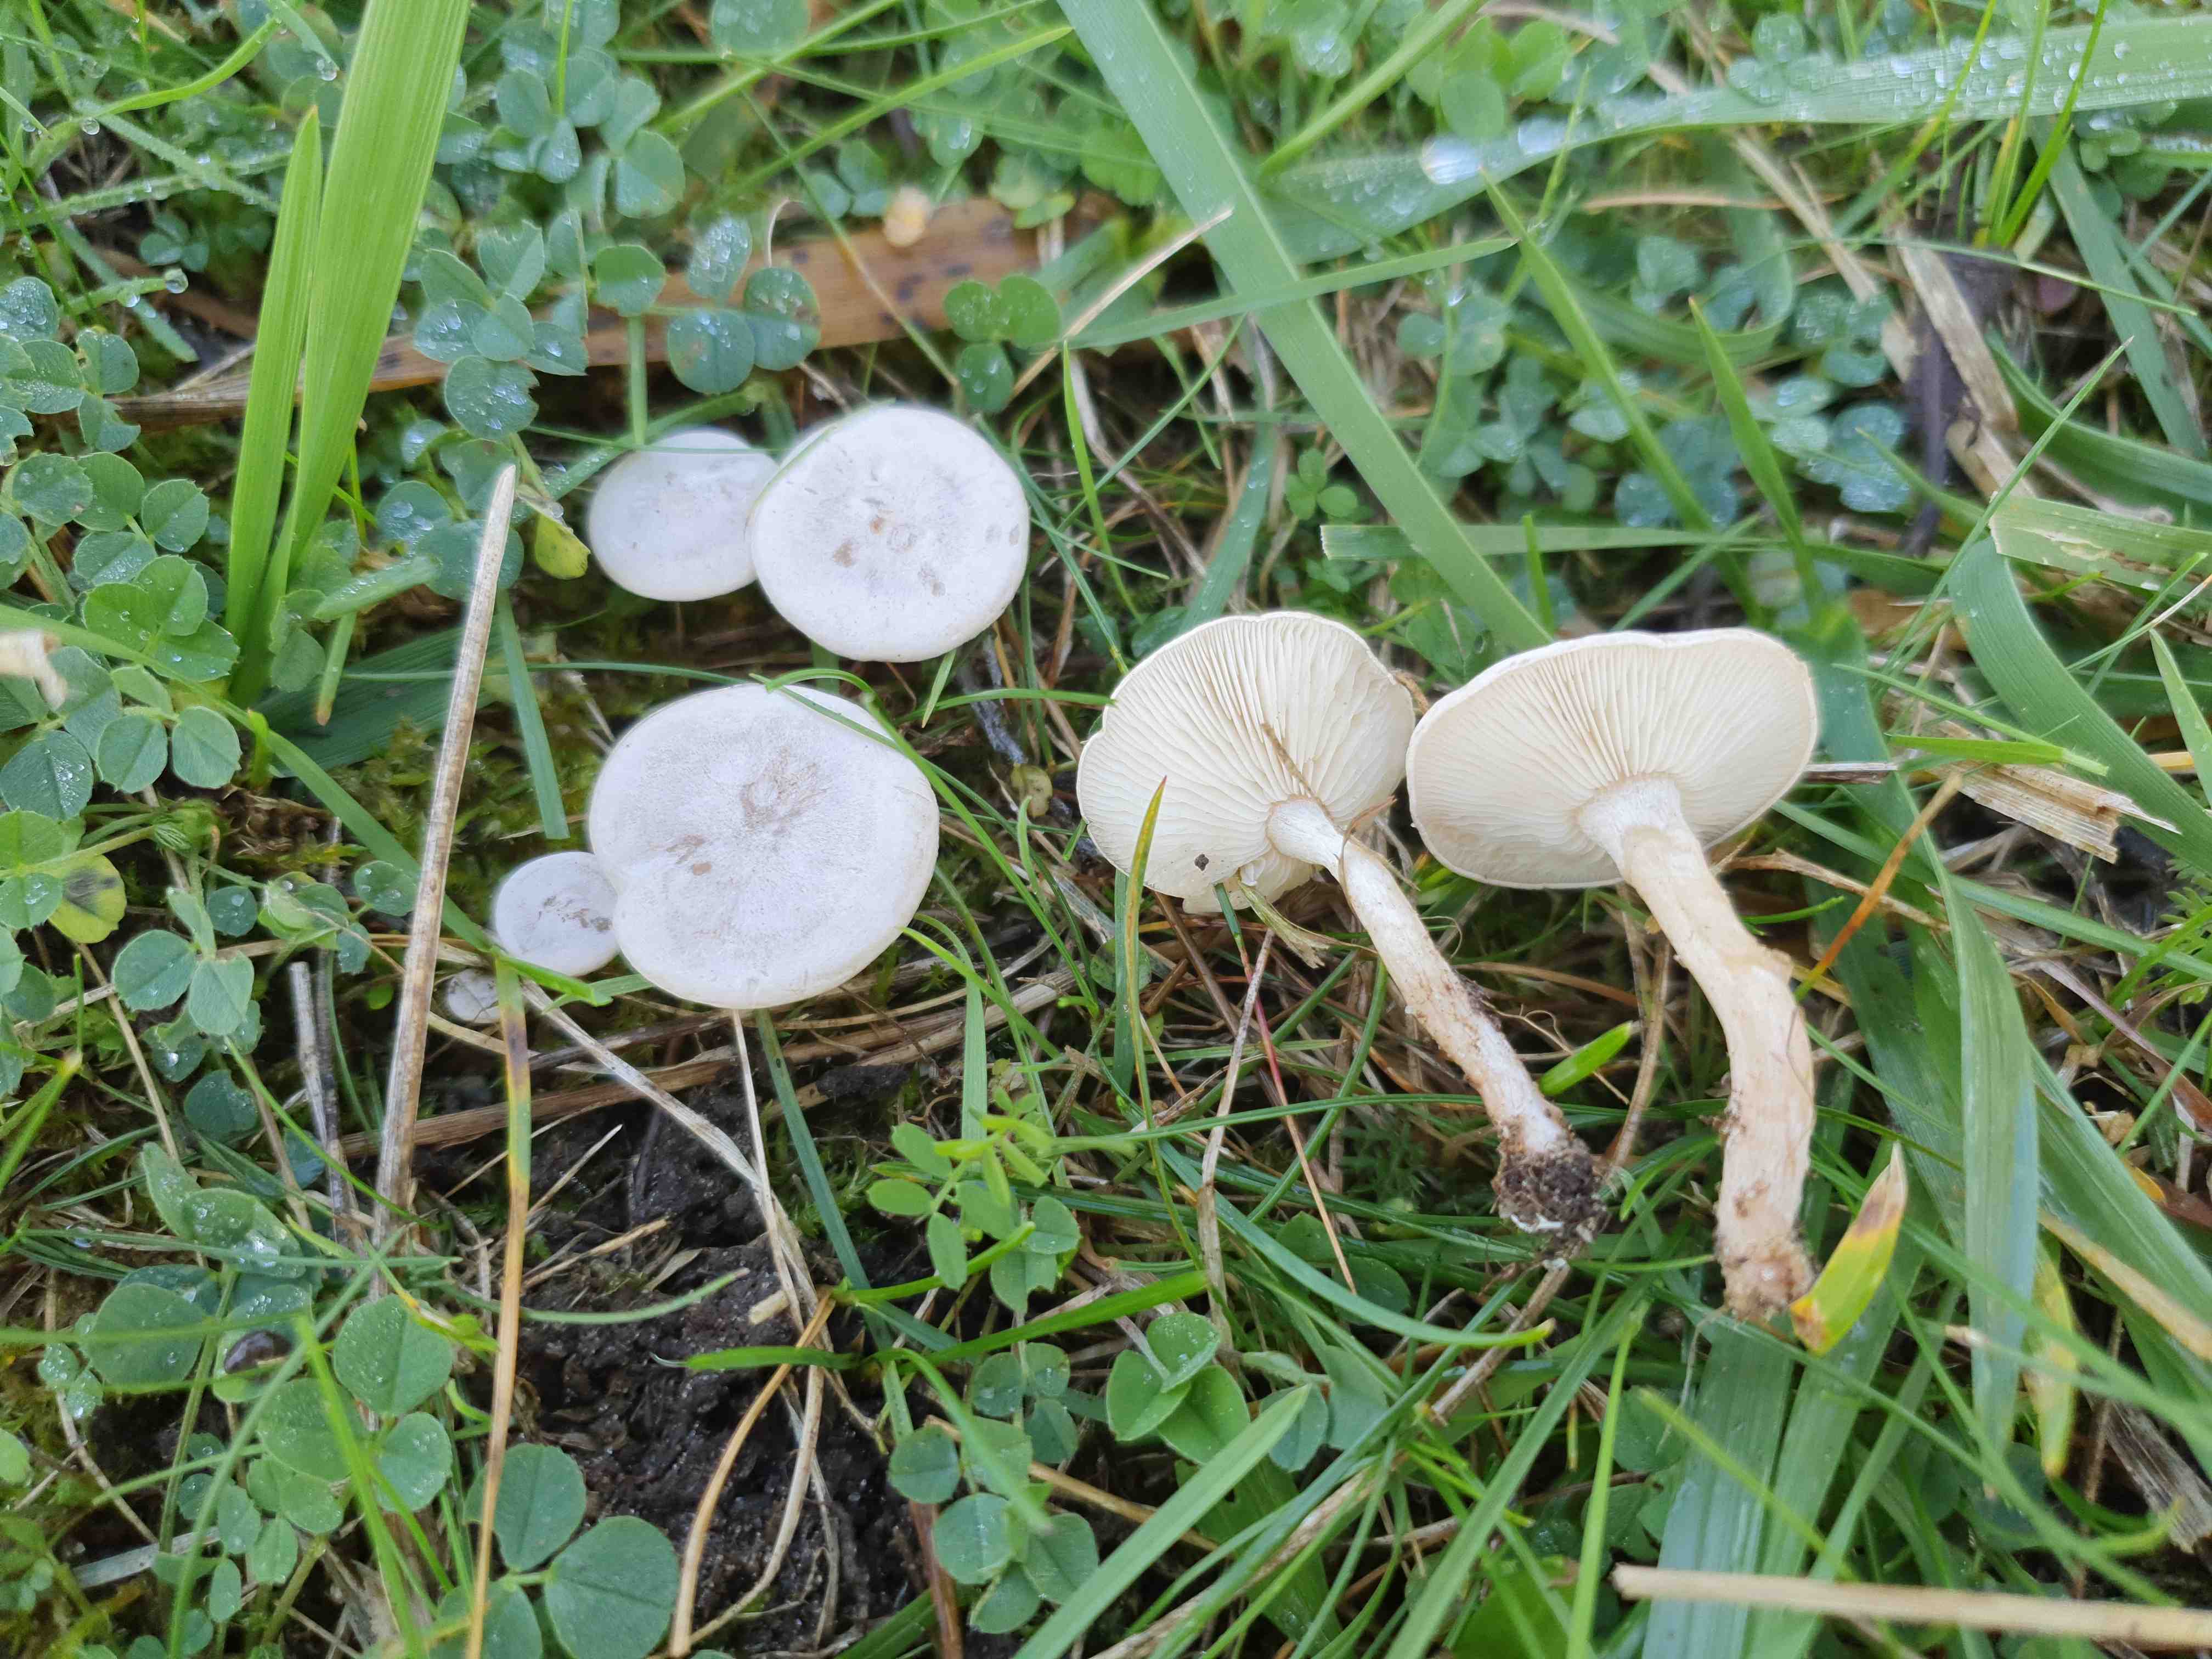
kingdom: Fungi
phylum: Basidiomycota
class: Agaricomycetes
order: Agaricales
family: Tricholomataceae
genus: Clitocybe
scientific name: Clitocybe rivulosa
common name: eng-tragthat
